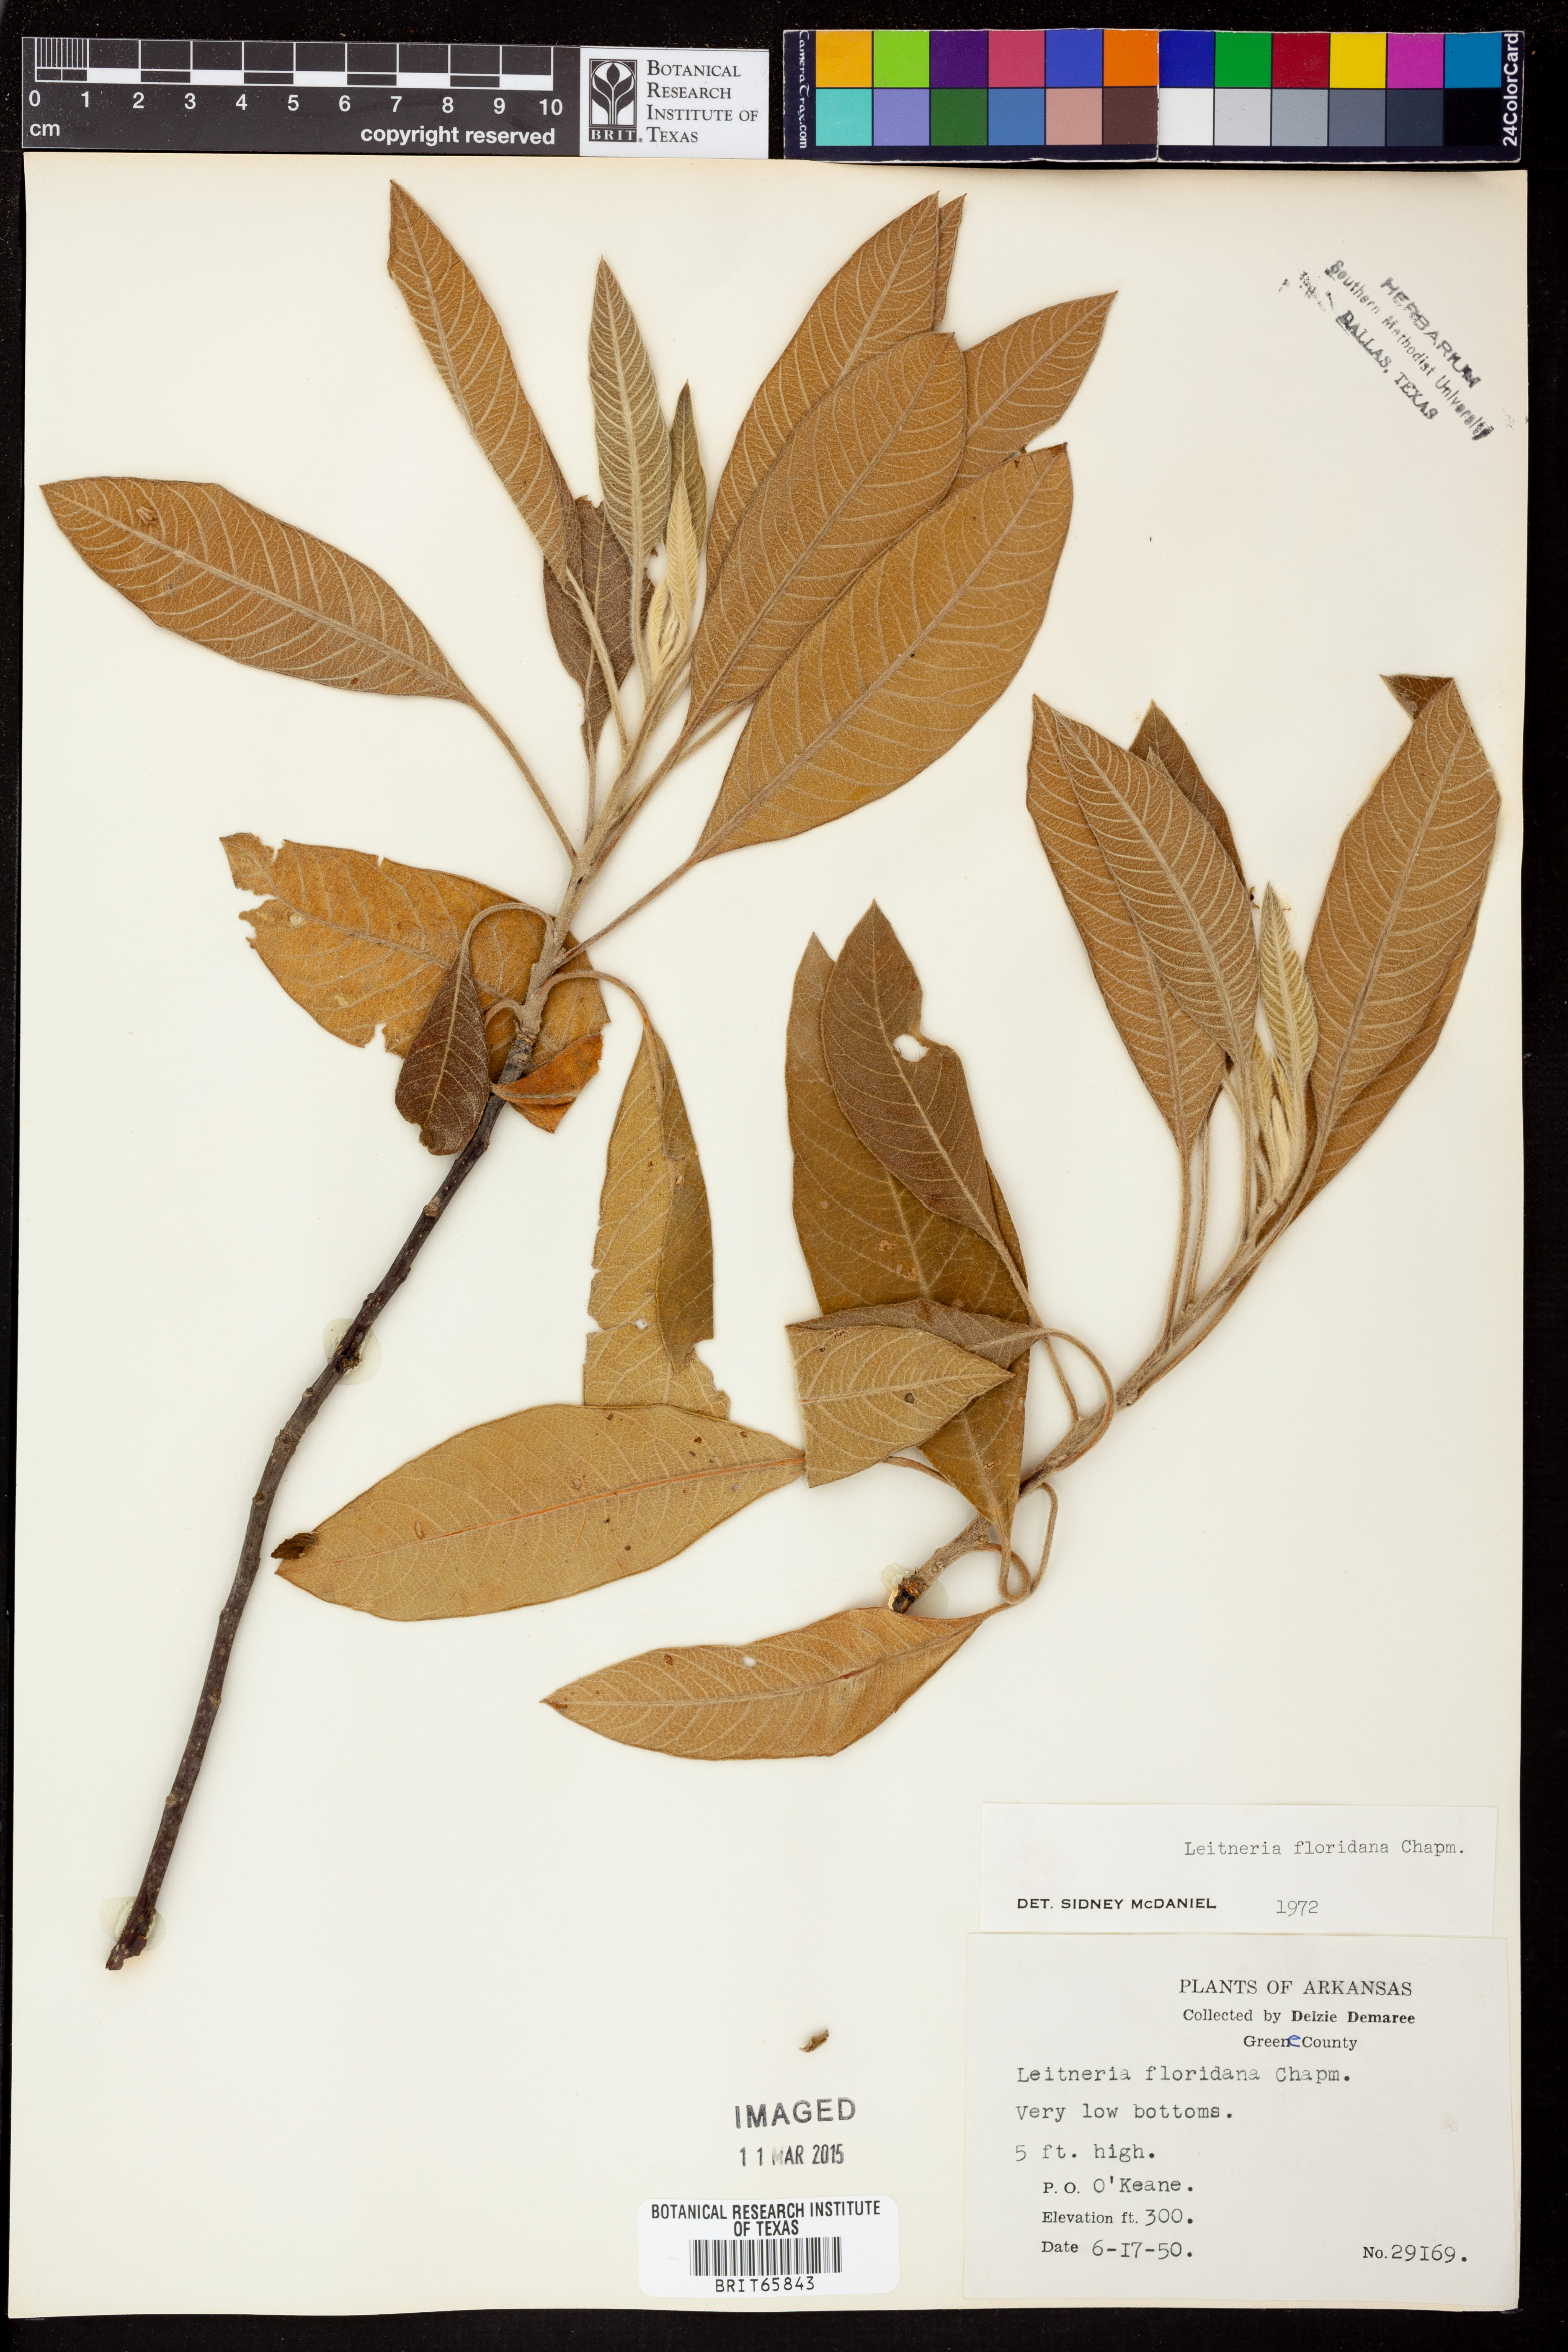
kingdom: Plantae
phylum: Tracheophyta
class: Magnoliopsida
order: Sapindales
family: Simaroubaceae
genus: Leitneria
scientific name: Leitneria floridana
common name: Corkwood
